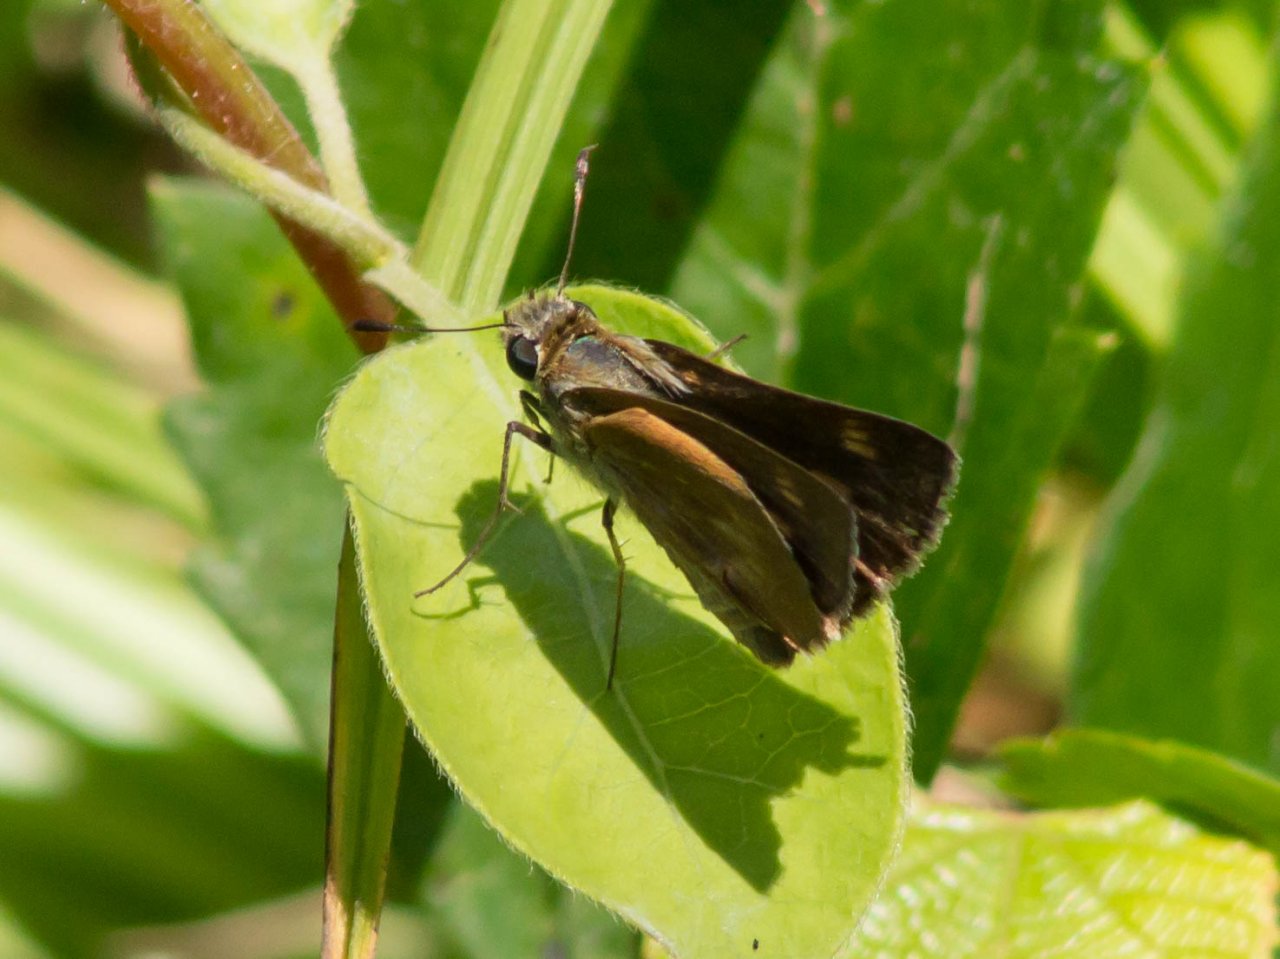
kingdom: Animalia
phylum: Arthropoda
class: Insecta
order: Lepidoptera
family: Hesperiidae
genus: Polites
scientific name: Polites egeremet
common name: Northern Broken-Dash
